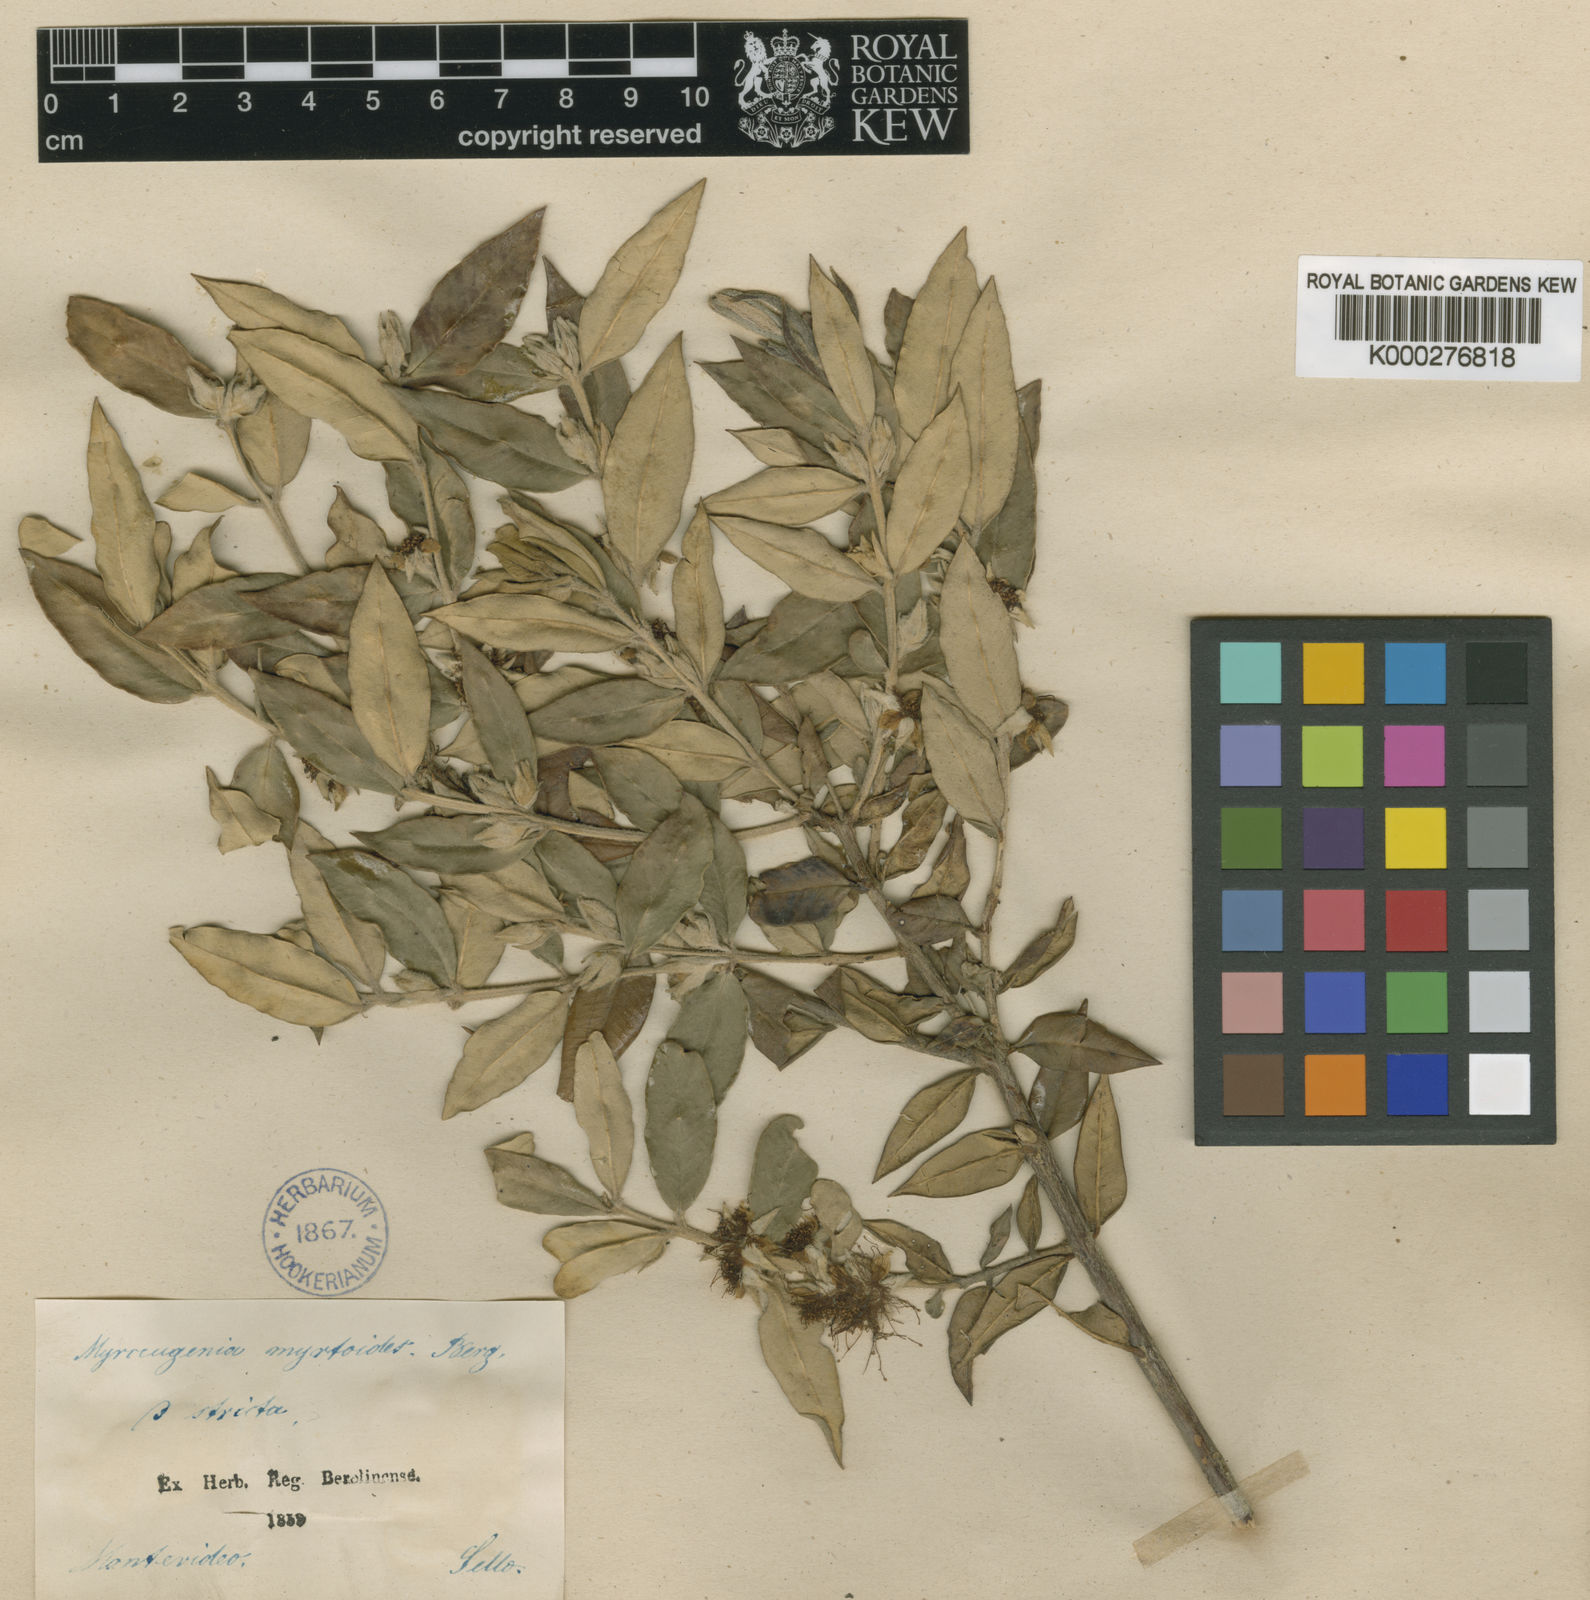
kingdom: Plantae
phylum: Tracheophyta
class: Magnoliopsida
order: Myrtales
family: Myrtaceae
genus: Myrceugenia
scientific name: Myrceugenia myrtoides
